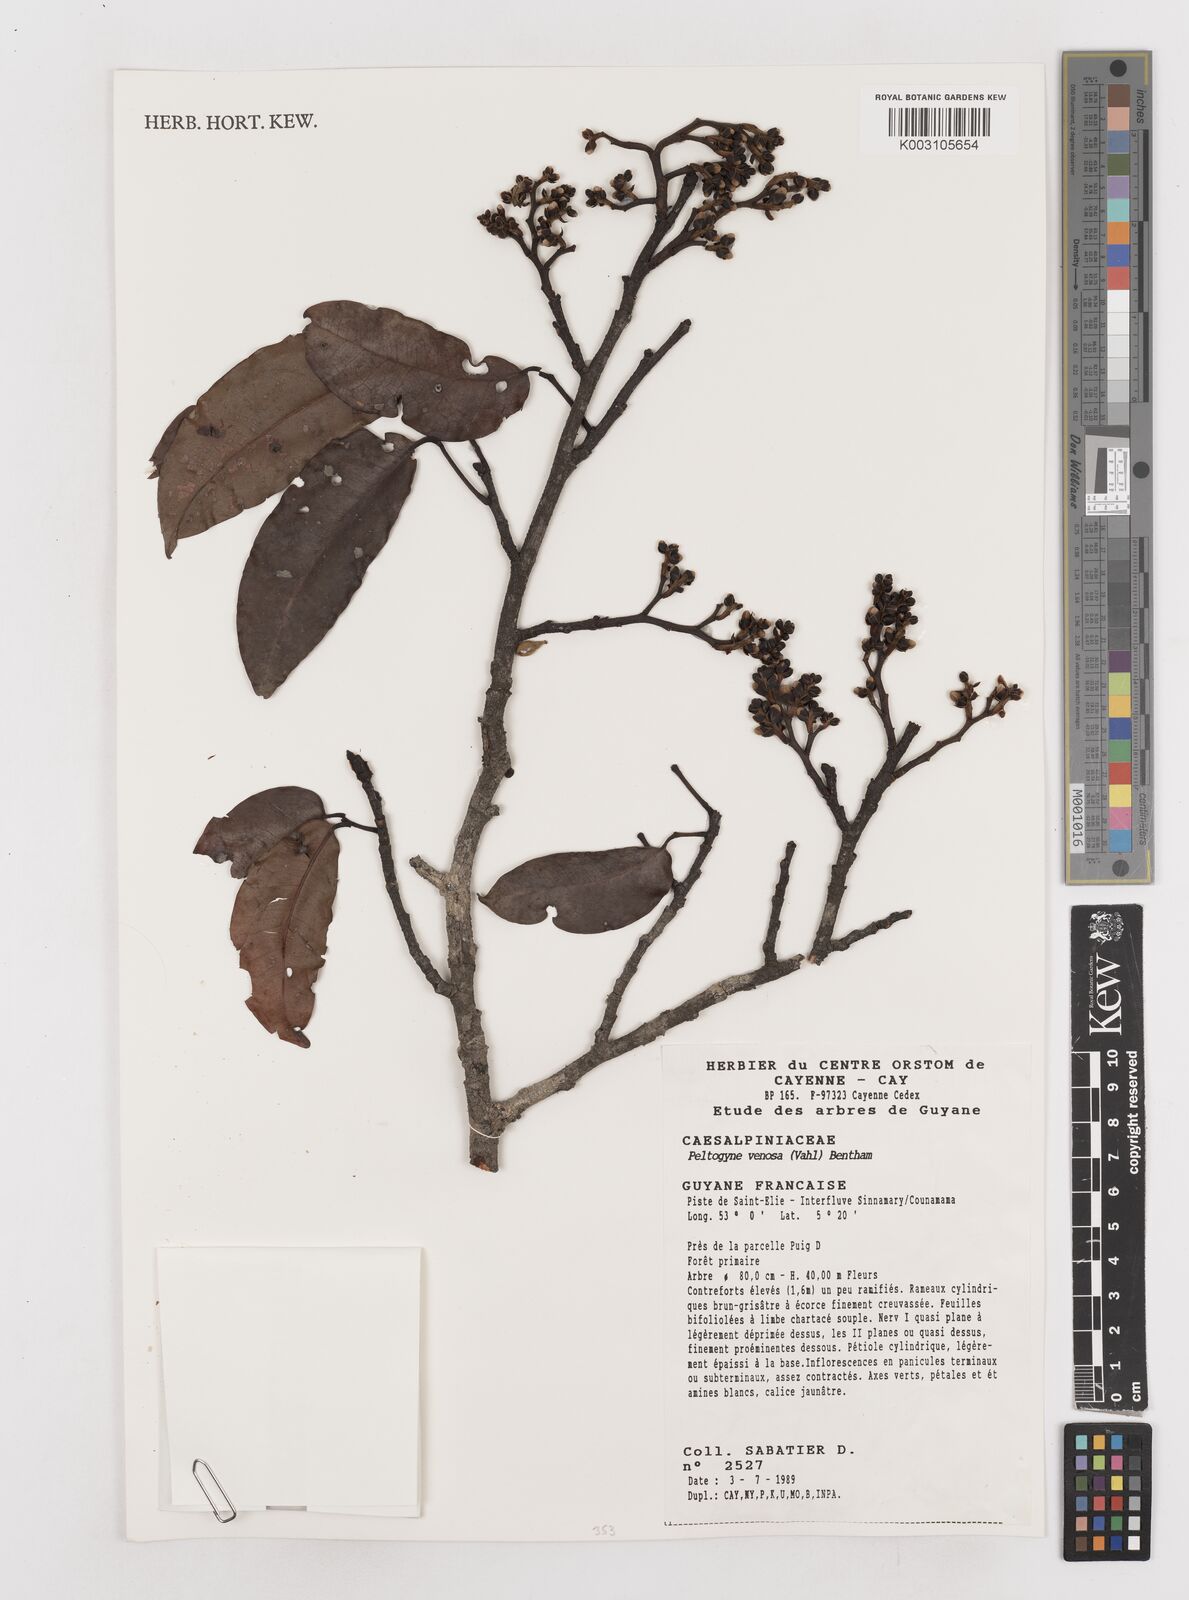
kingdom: Plantae
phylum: Tracheophyta
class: Magnoliopsida
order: Fabales
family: Fabaceae
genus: Peltogyne
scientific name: Peltogyne venosa
